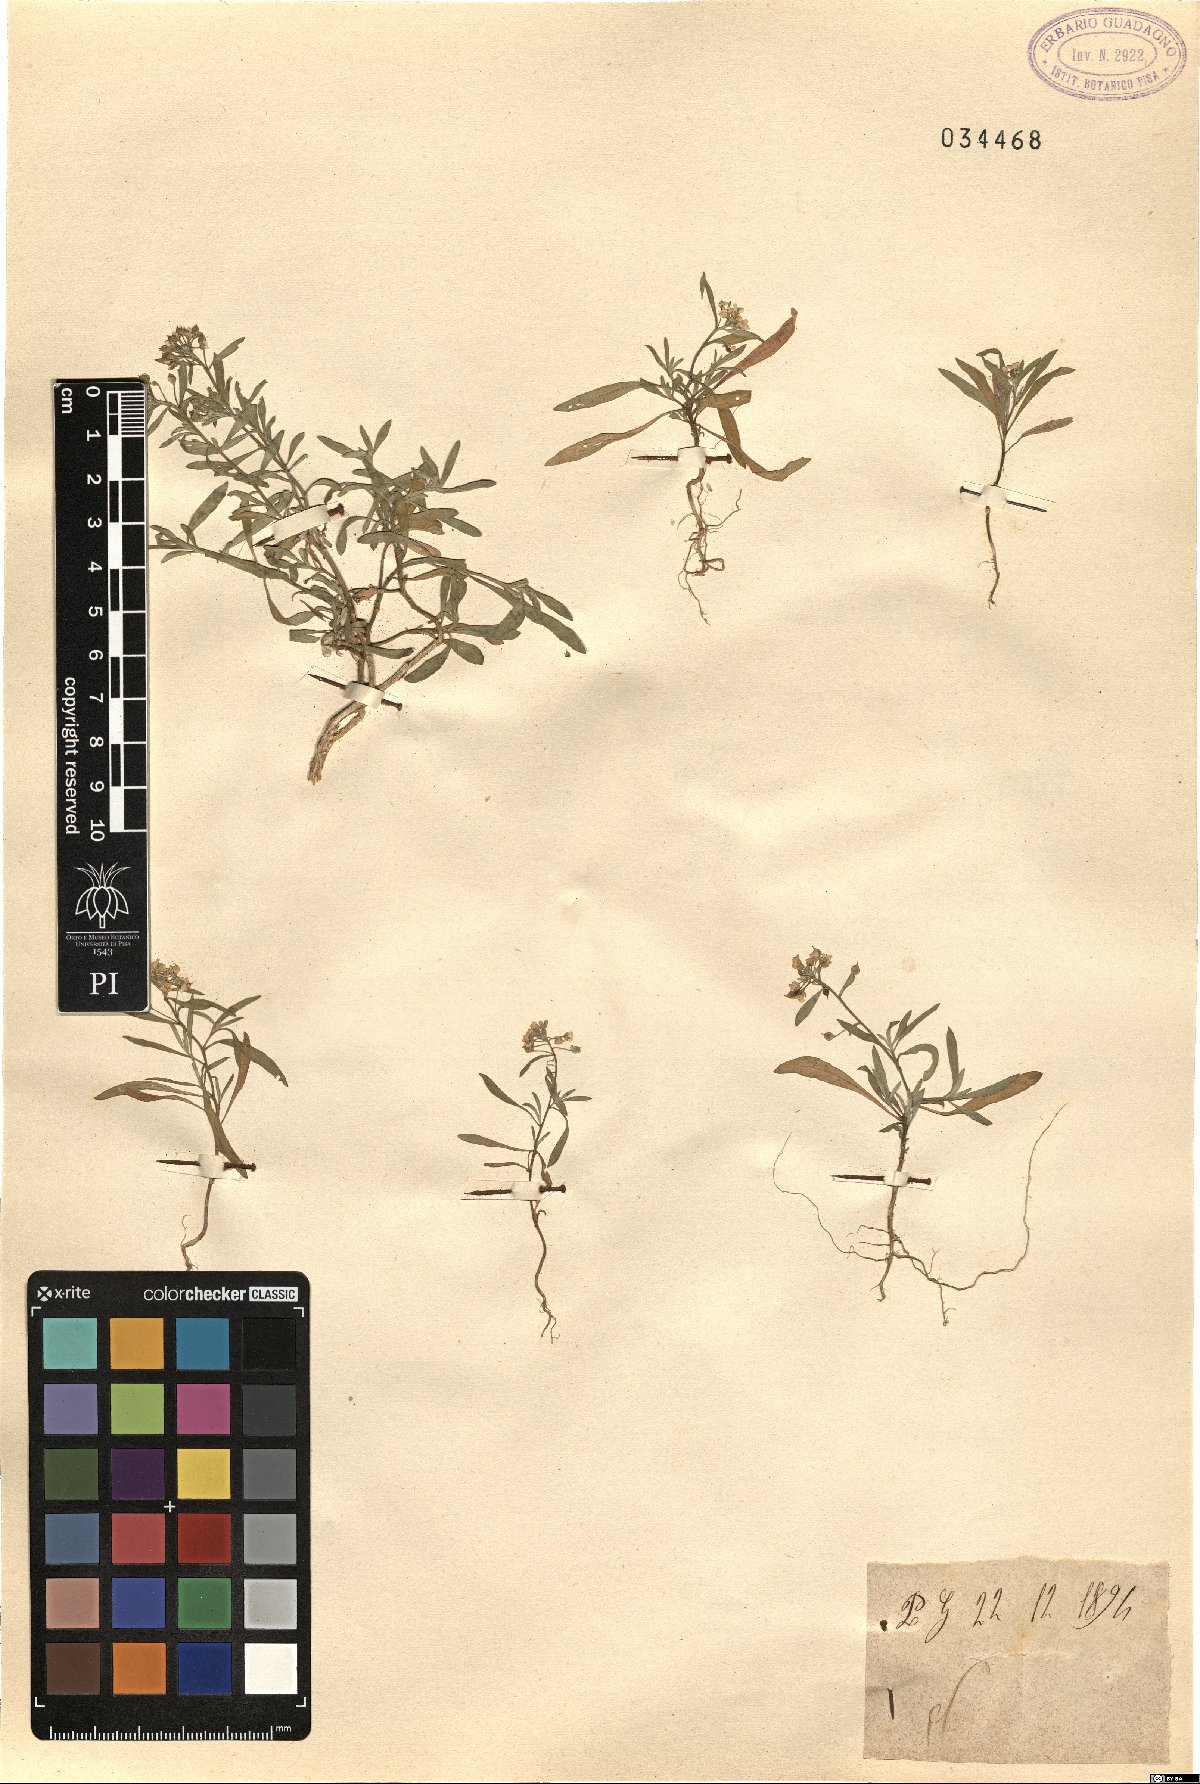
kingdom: Plantae
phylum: Tracheophyta
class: Magnoliopsida
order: Brassicales
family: Brassicaceae
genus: Alyssum
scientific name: Alyssum
